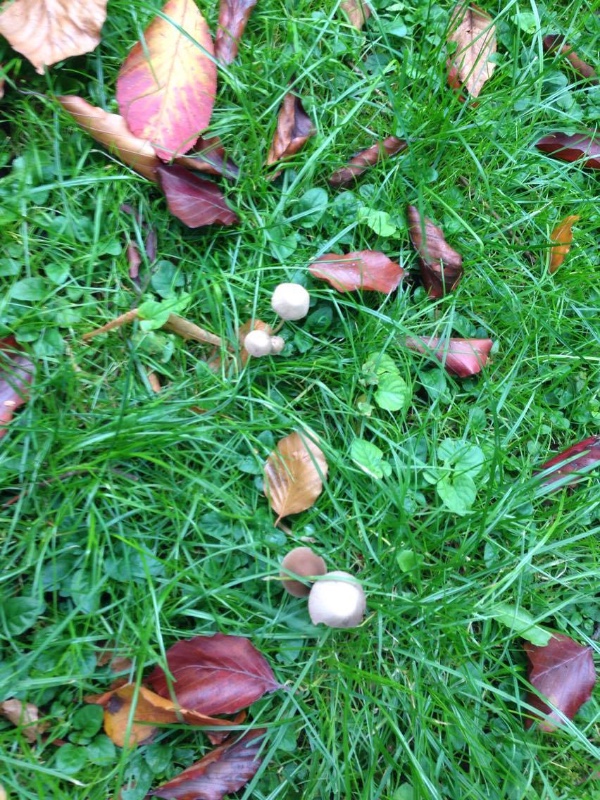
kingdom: Fungi
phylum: Basidiomycota
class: Agaricomycetes
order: Agaricales
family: Psathyrellaceae
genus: Psathyrella
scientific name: Psathyrella
